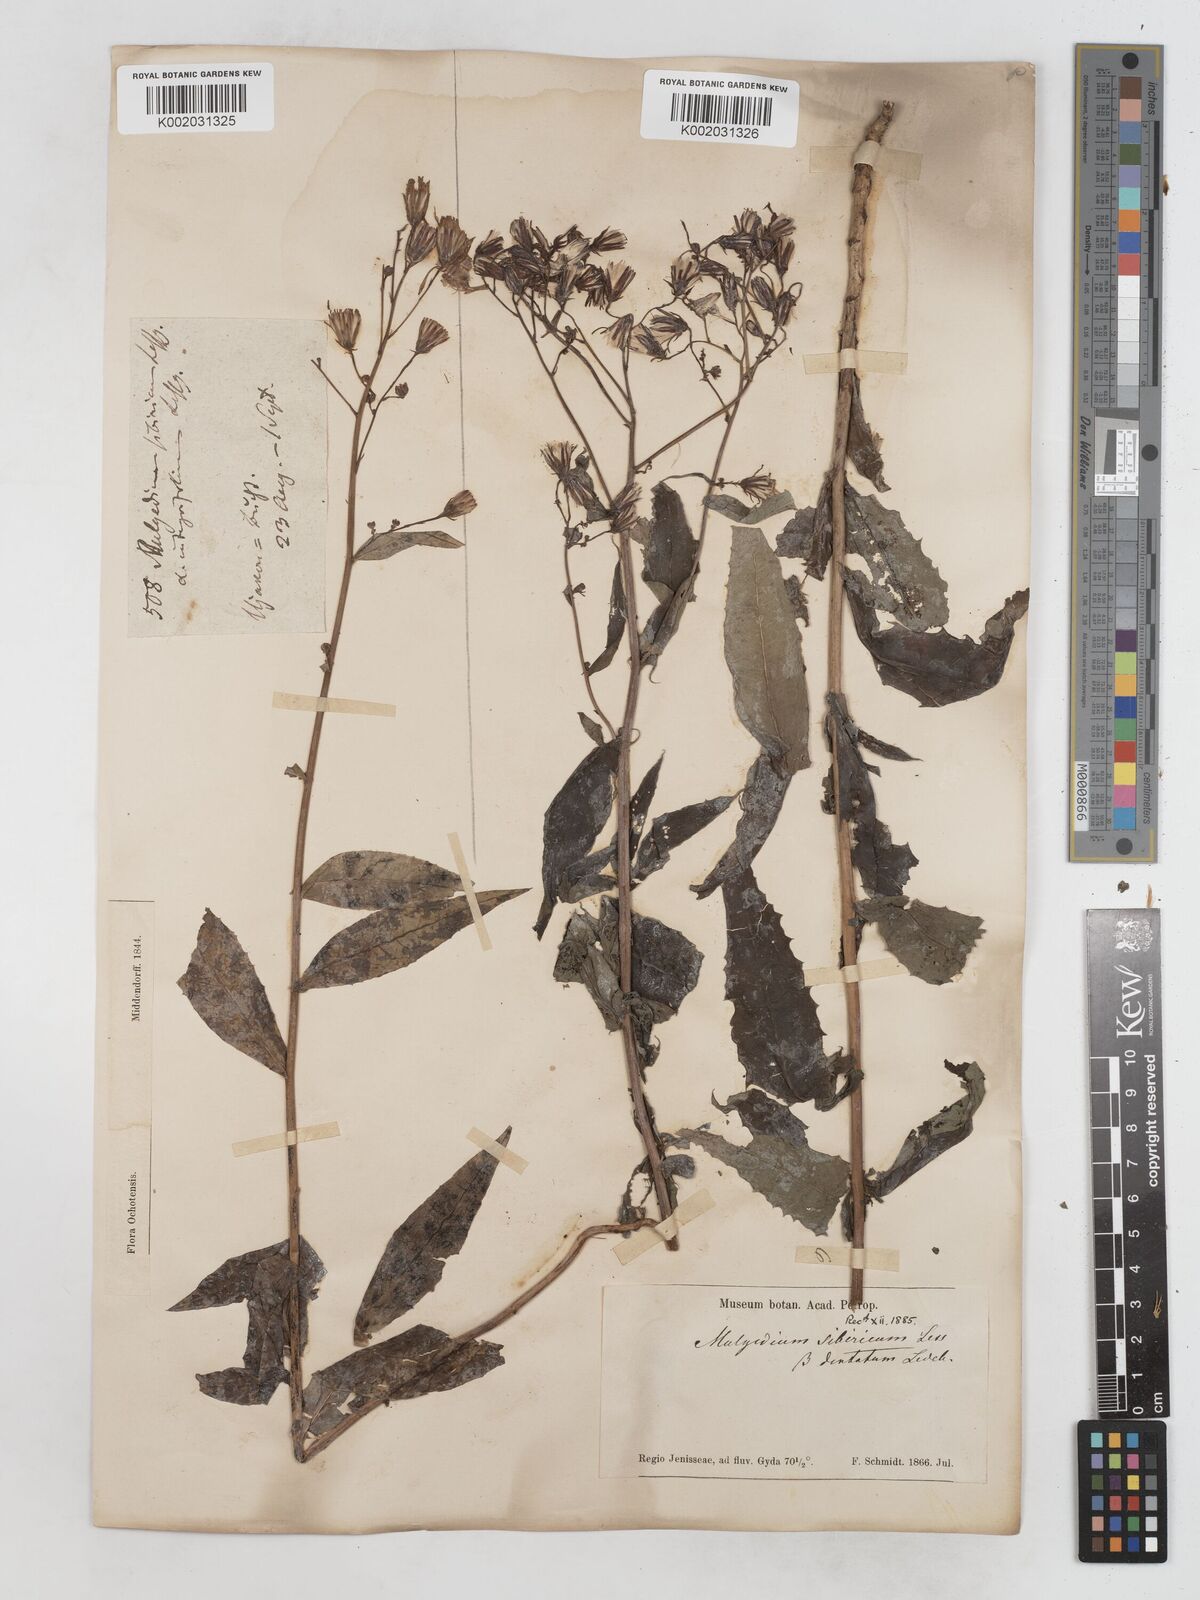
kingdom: Plantae
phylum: Tracheophyta
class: Magnoliopsida
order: Asterales
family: Asteraceae
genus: Lactuca
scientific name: Lactuca sibirica
